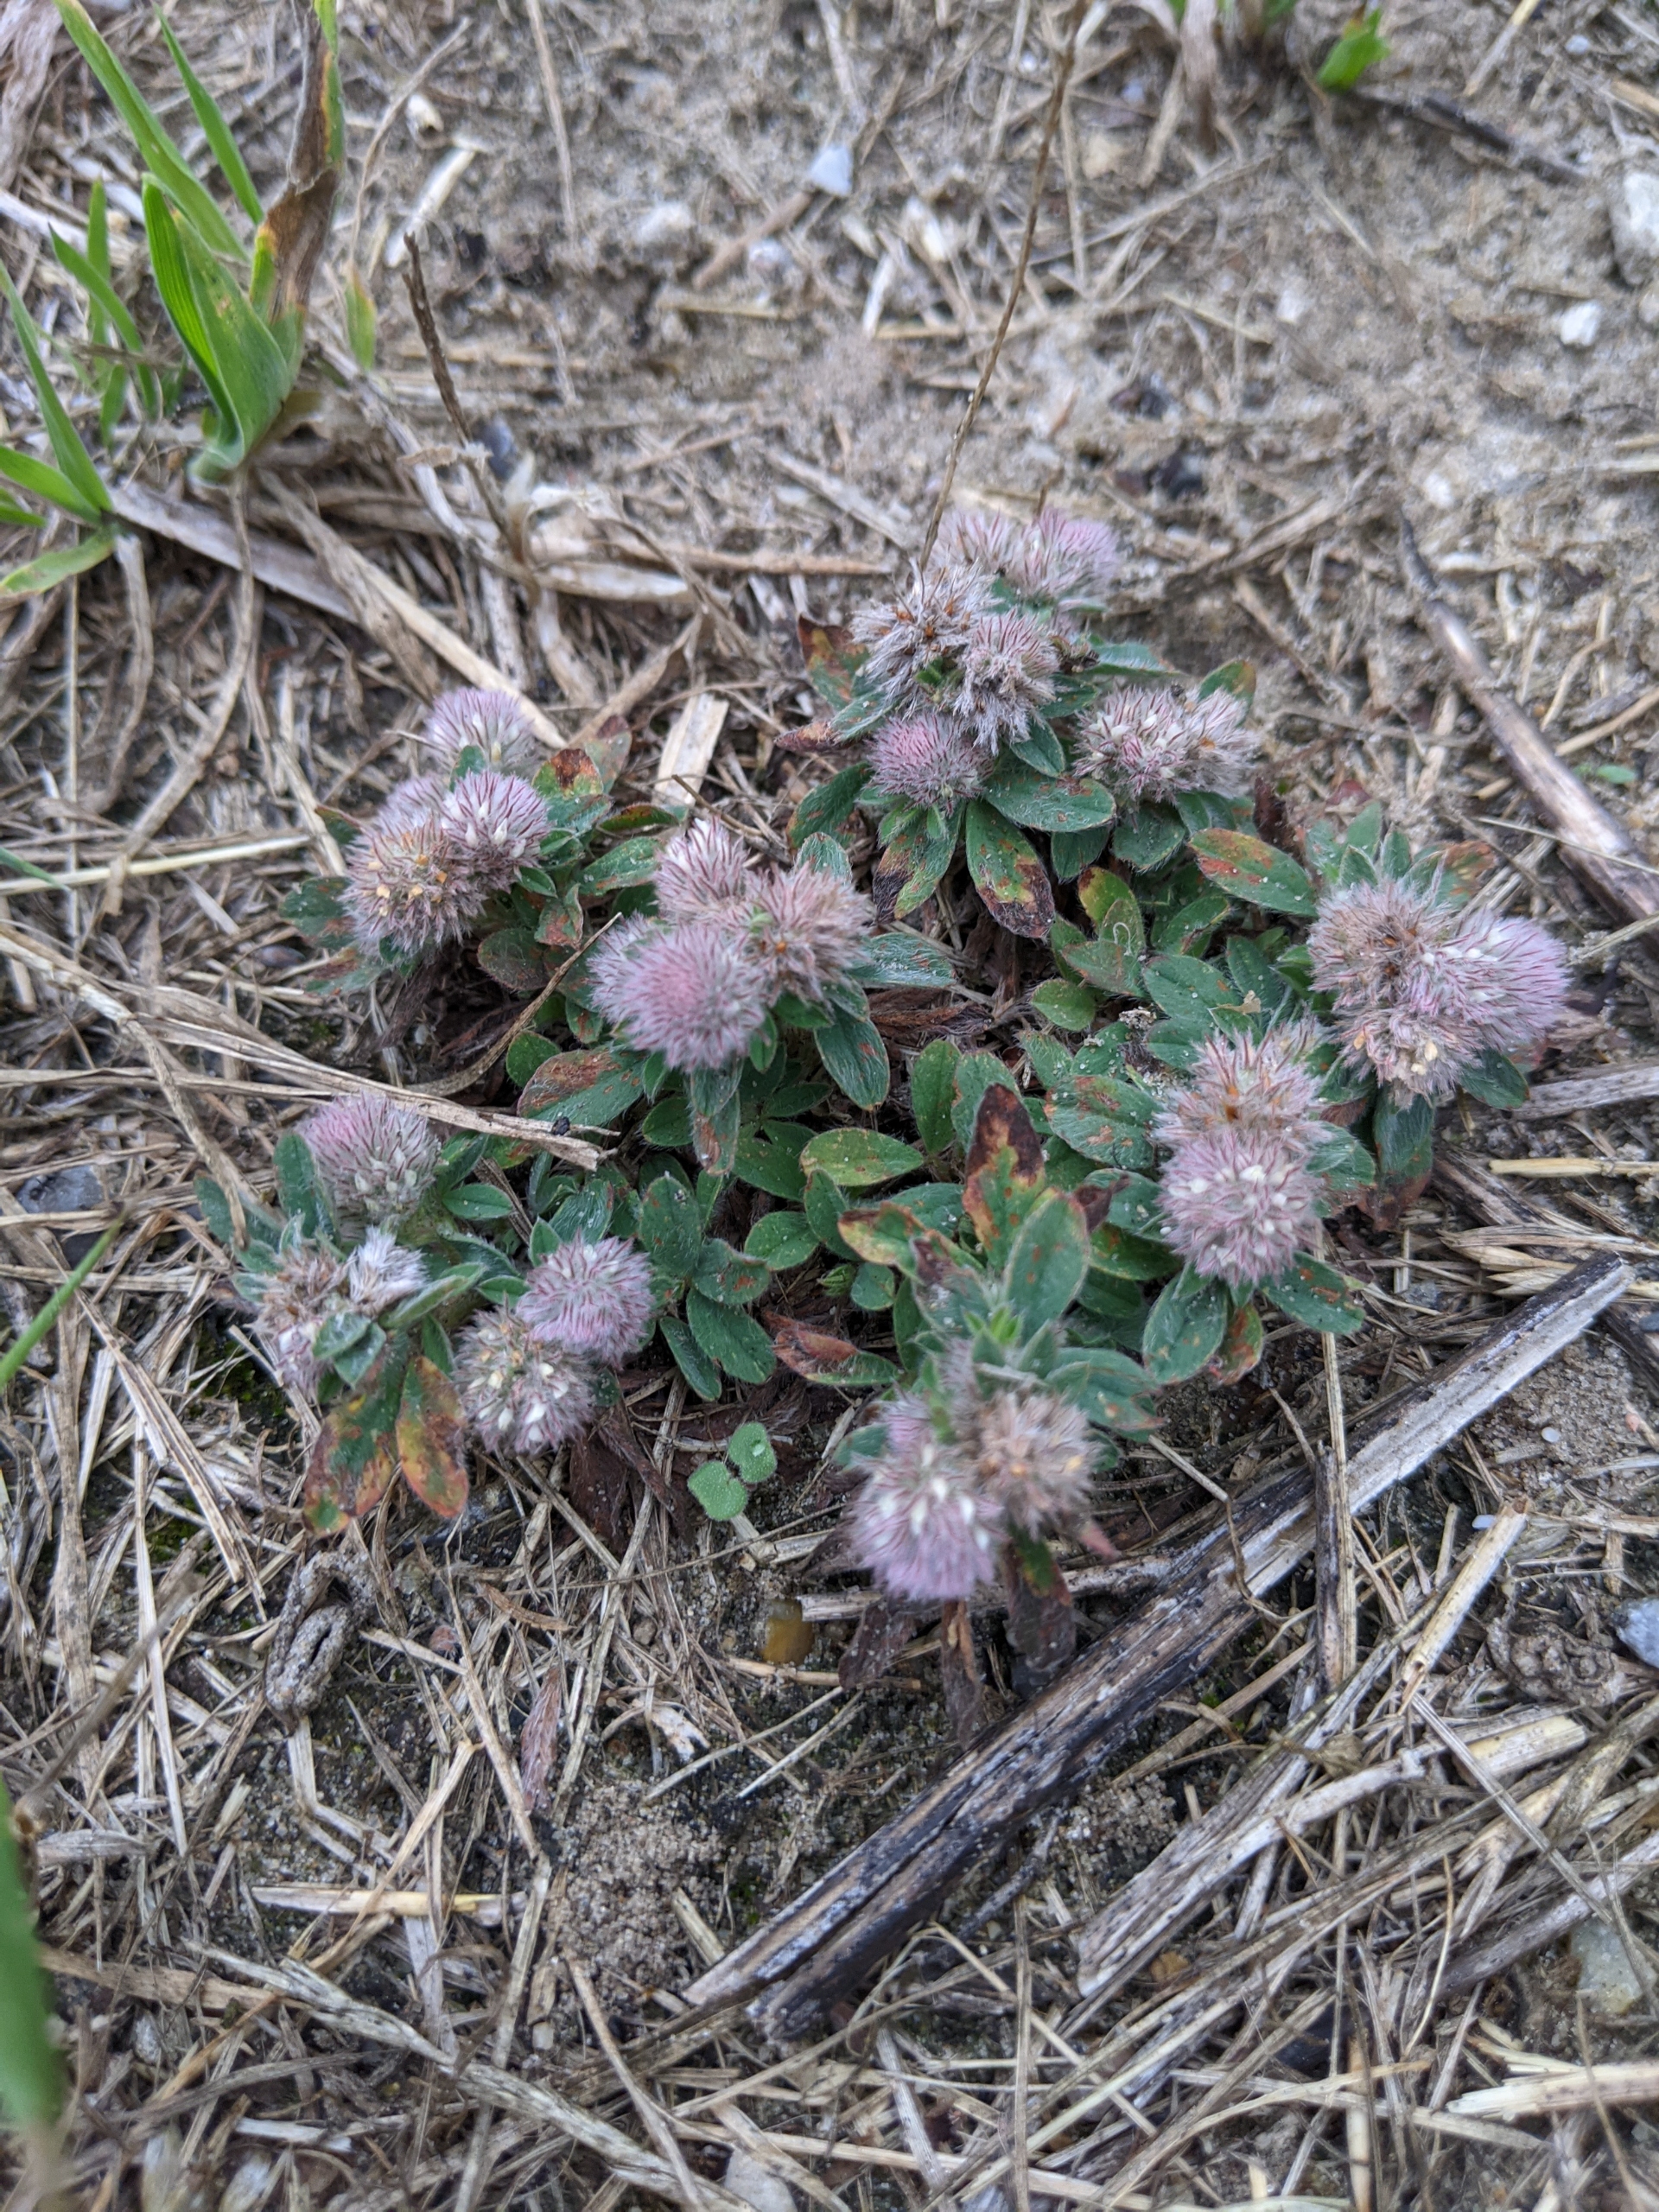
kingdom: Plantae
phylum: Tracheophyta
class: Magnoliopsida
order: Fabales
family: Fabaceae
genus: Trifolium
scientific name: Trifolium arvense
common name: Hare-kløver
